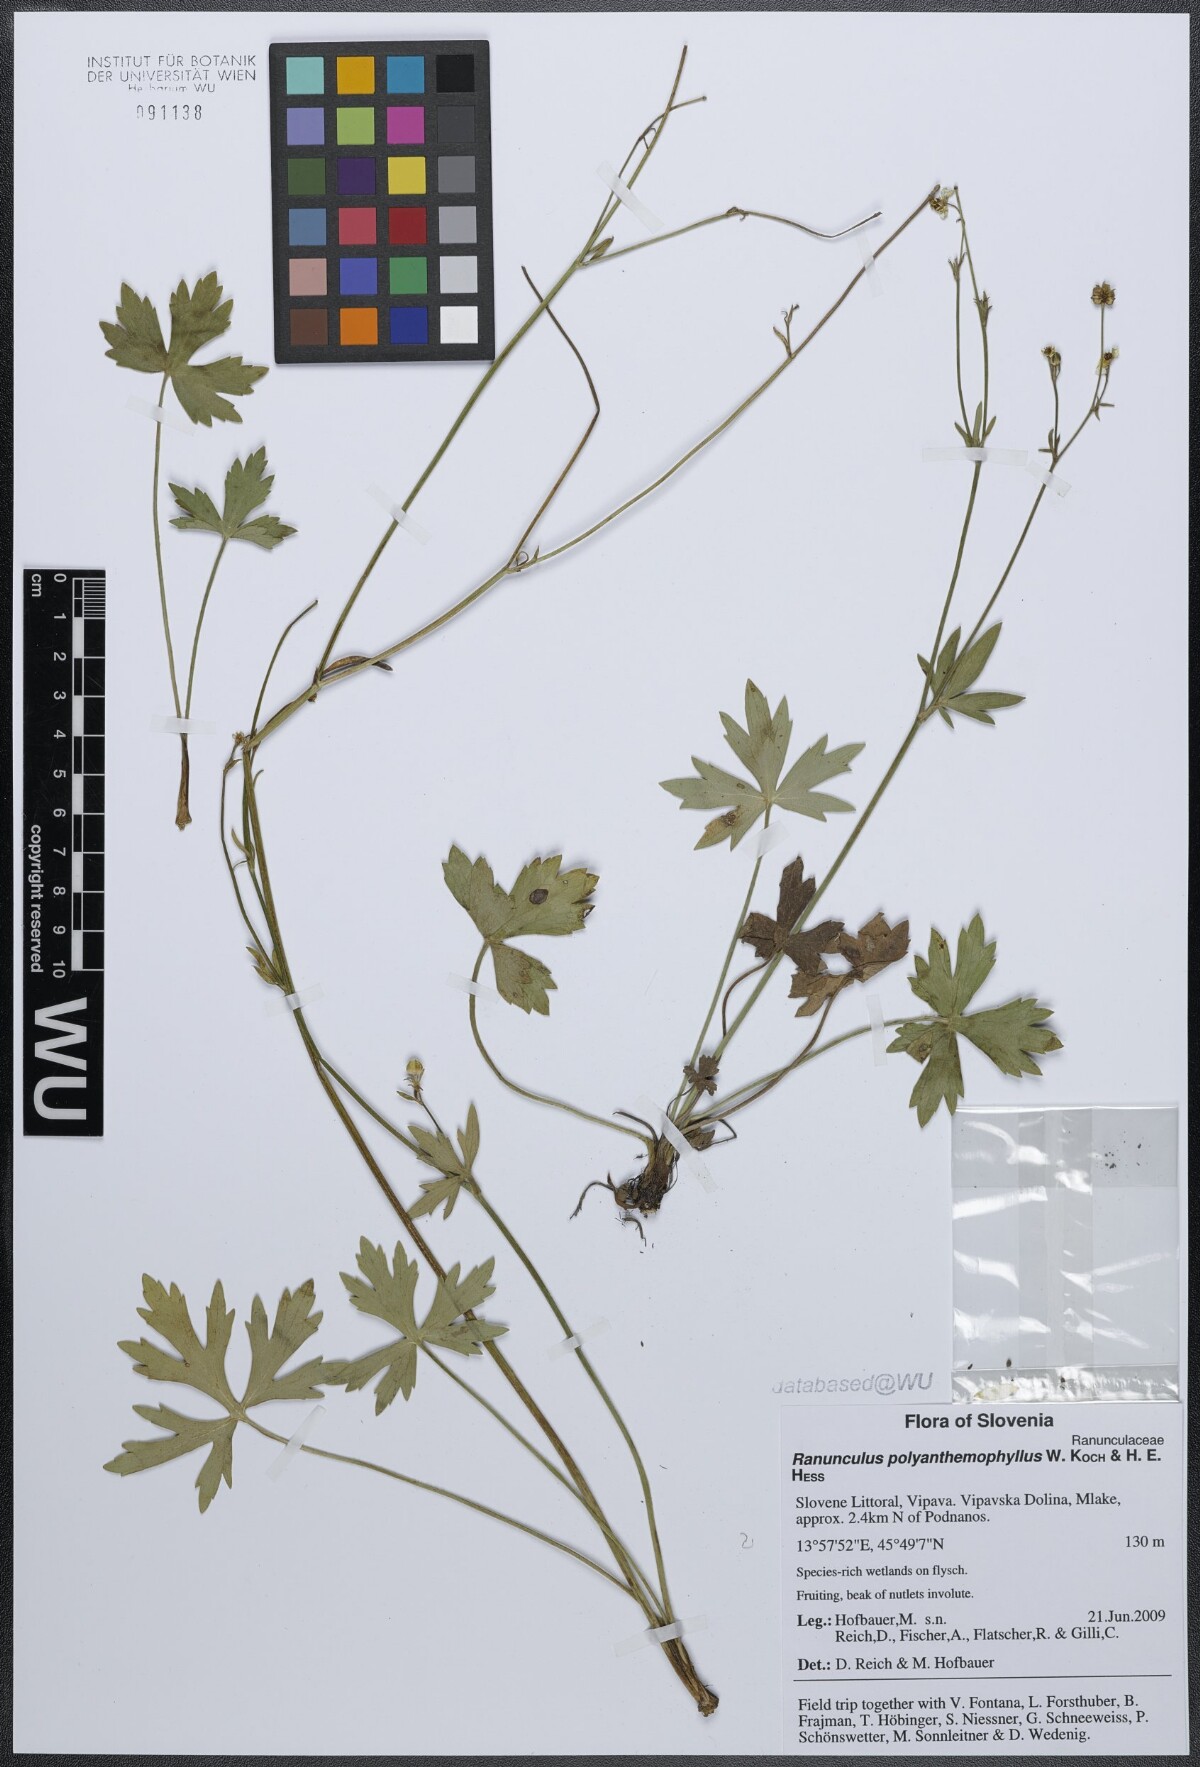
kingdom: Plantae
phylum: Tracheophyta
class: Magnoliopsida
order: Ranunculales
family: Ranunculaceae
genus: Ranunculus
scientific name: Ranunculus polyanthemos
